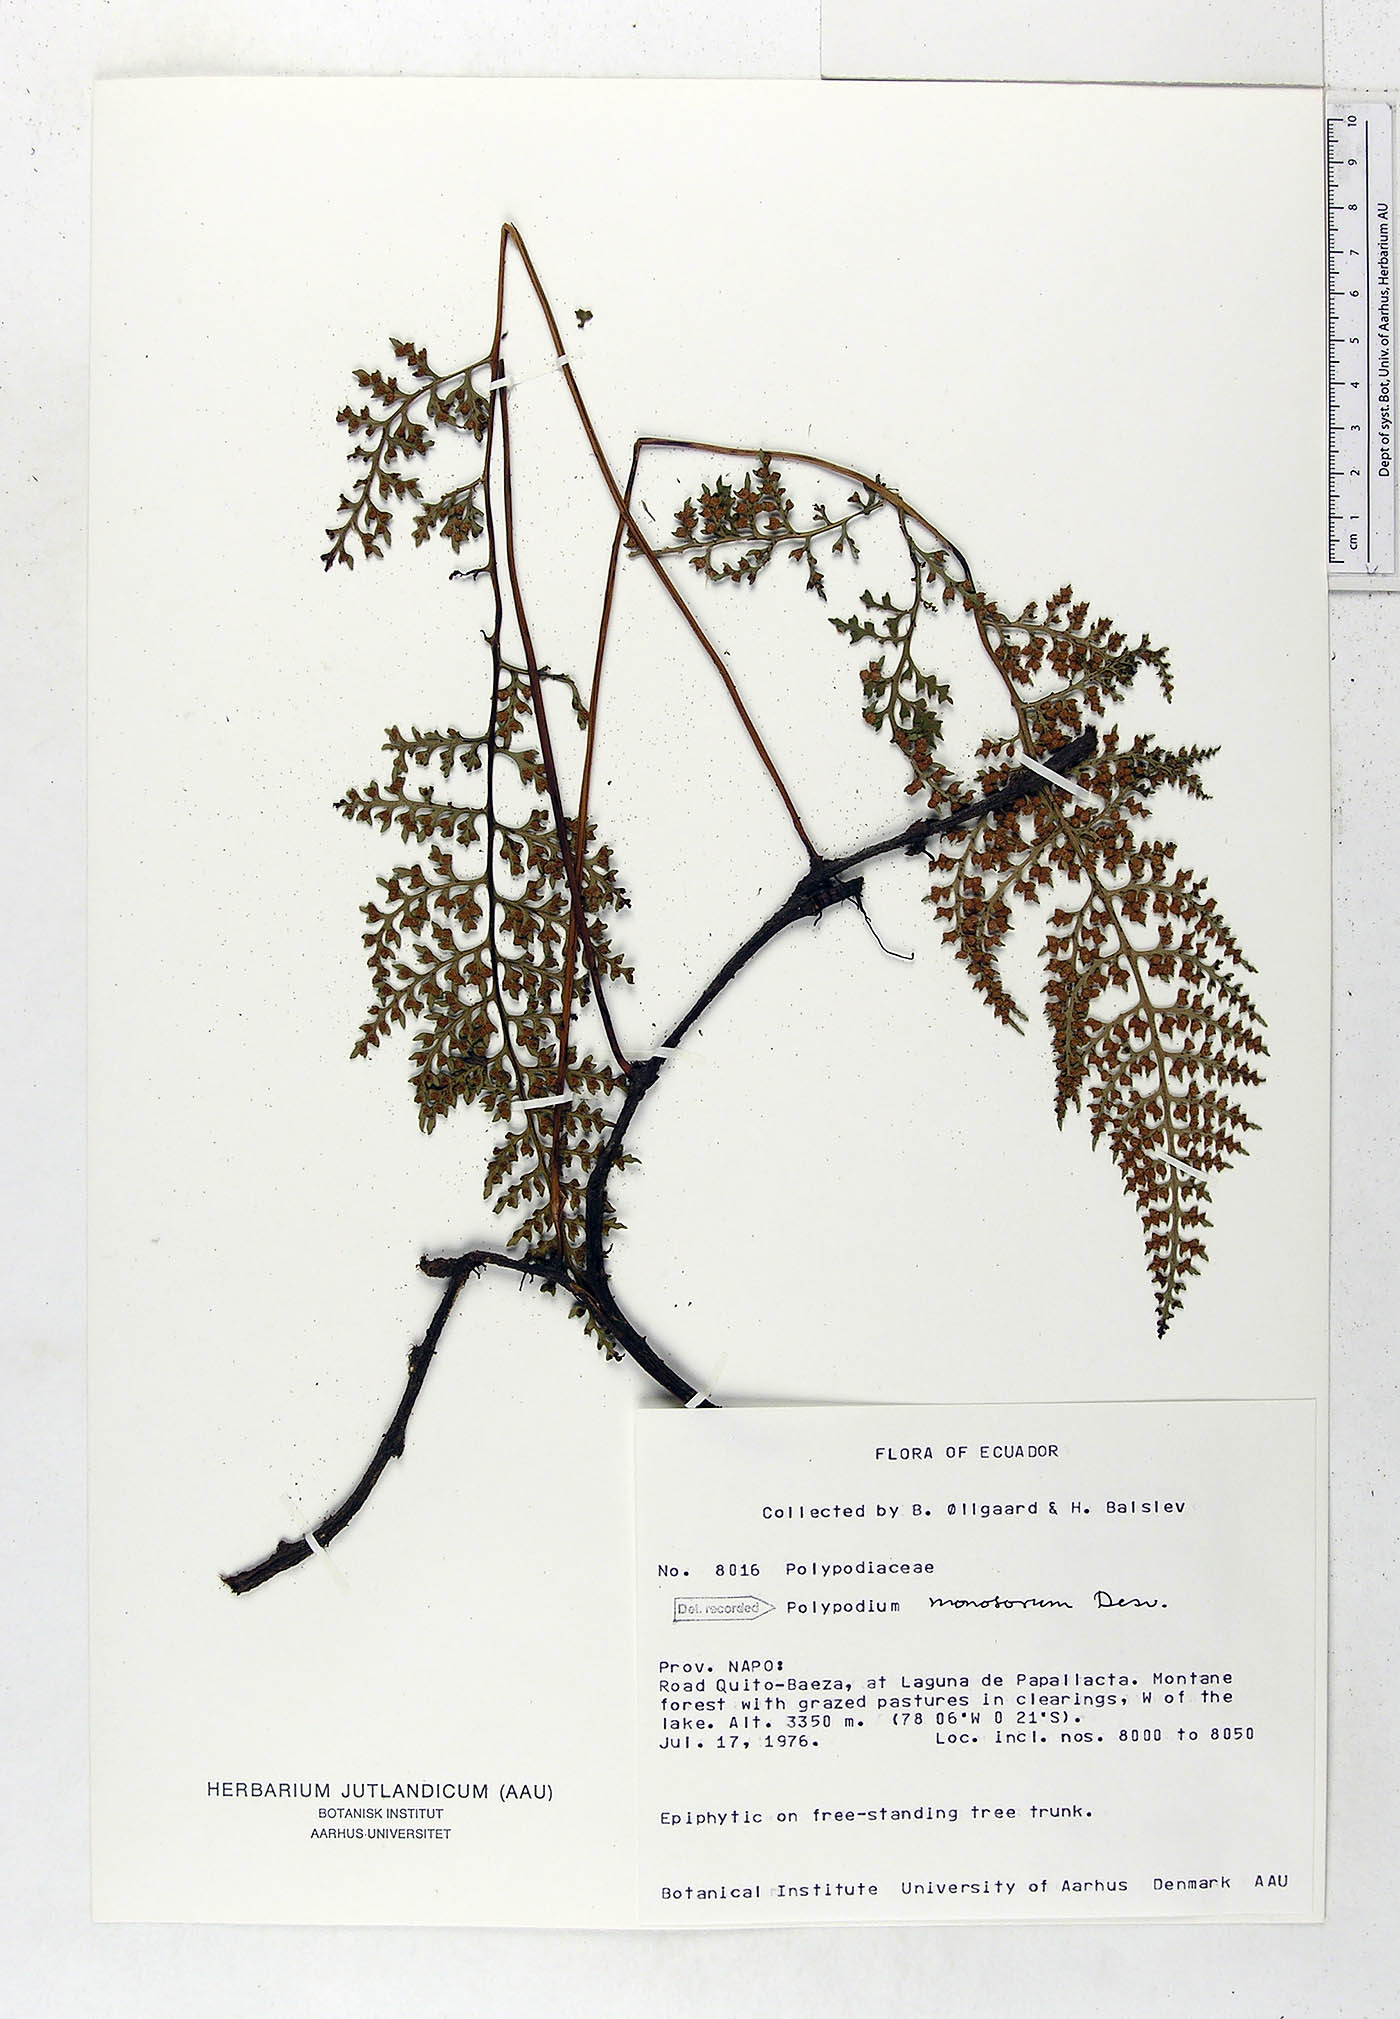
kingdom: Plantae
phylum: Tracheophyta
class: Polypodiopsida
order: Polypodiales
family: Polypodiaceae
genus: Pleopeltis
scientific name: Pleopeltis monosora
